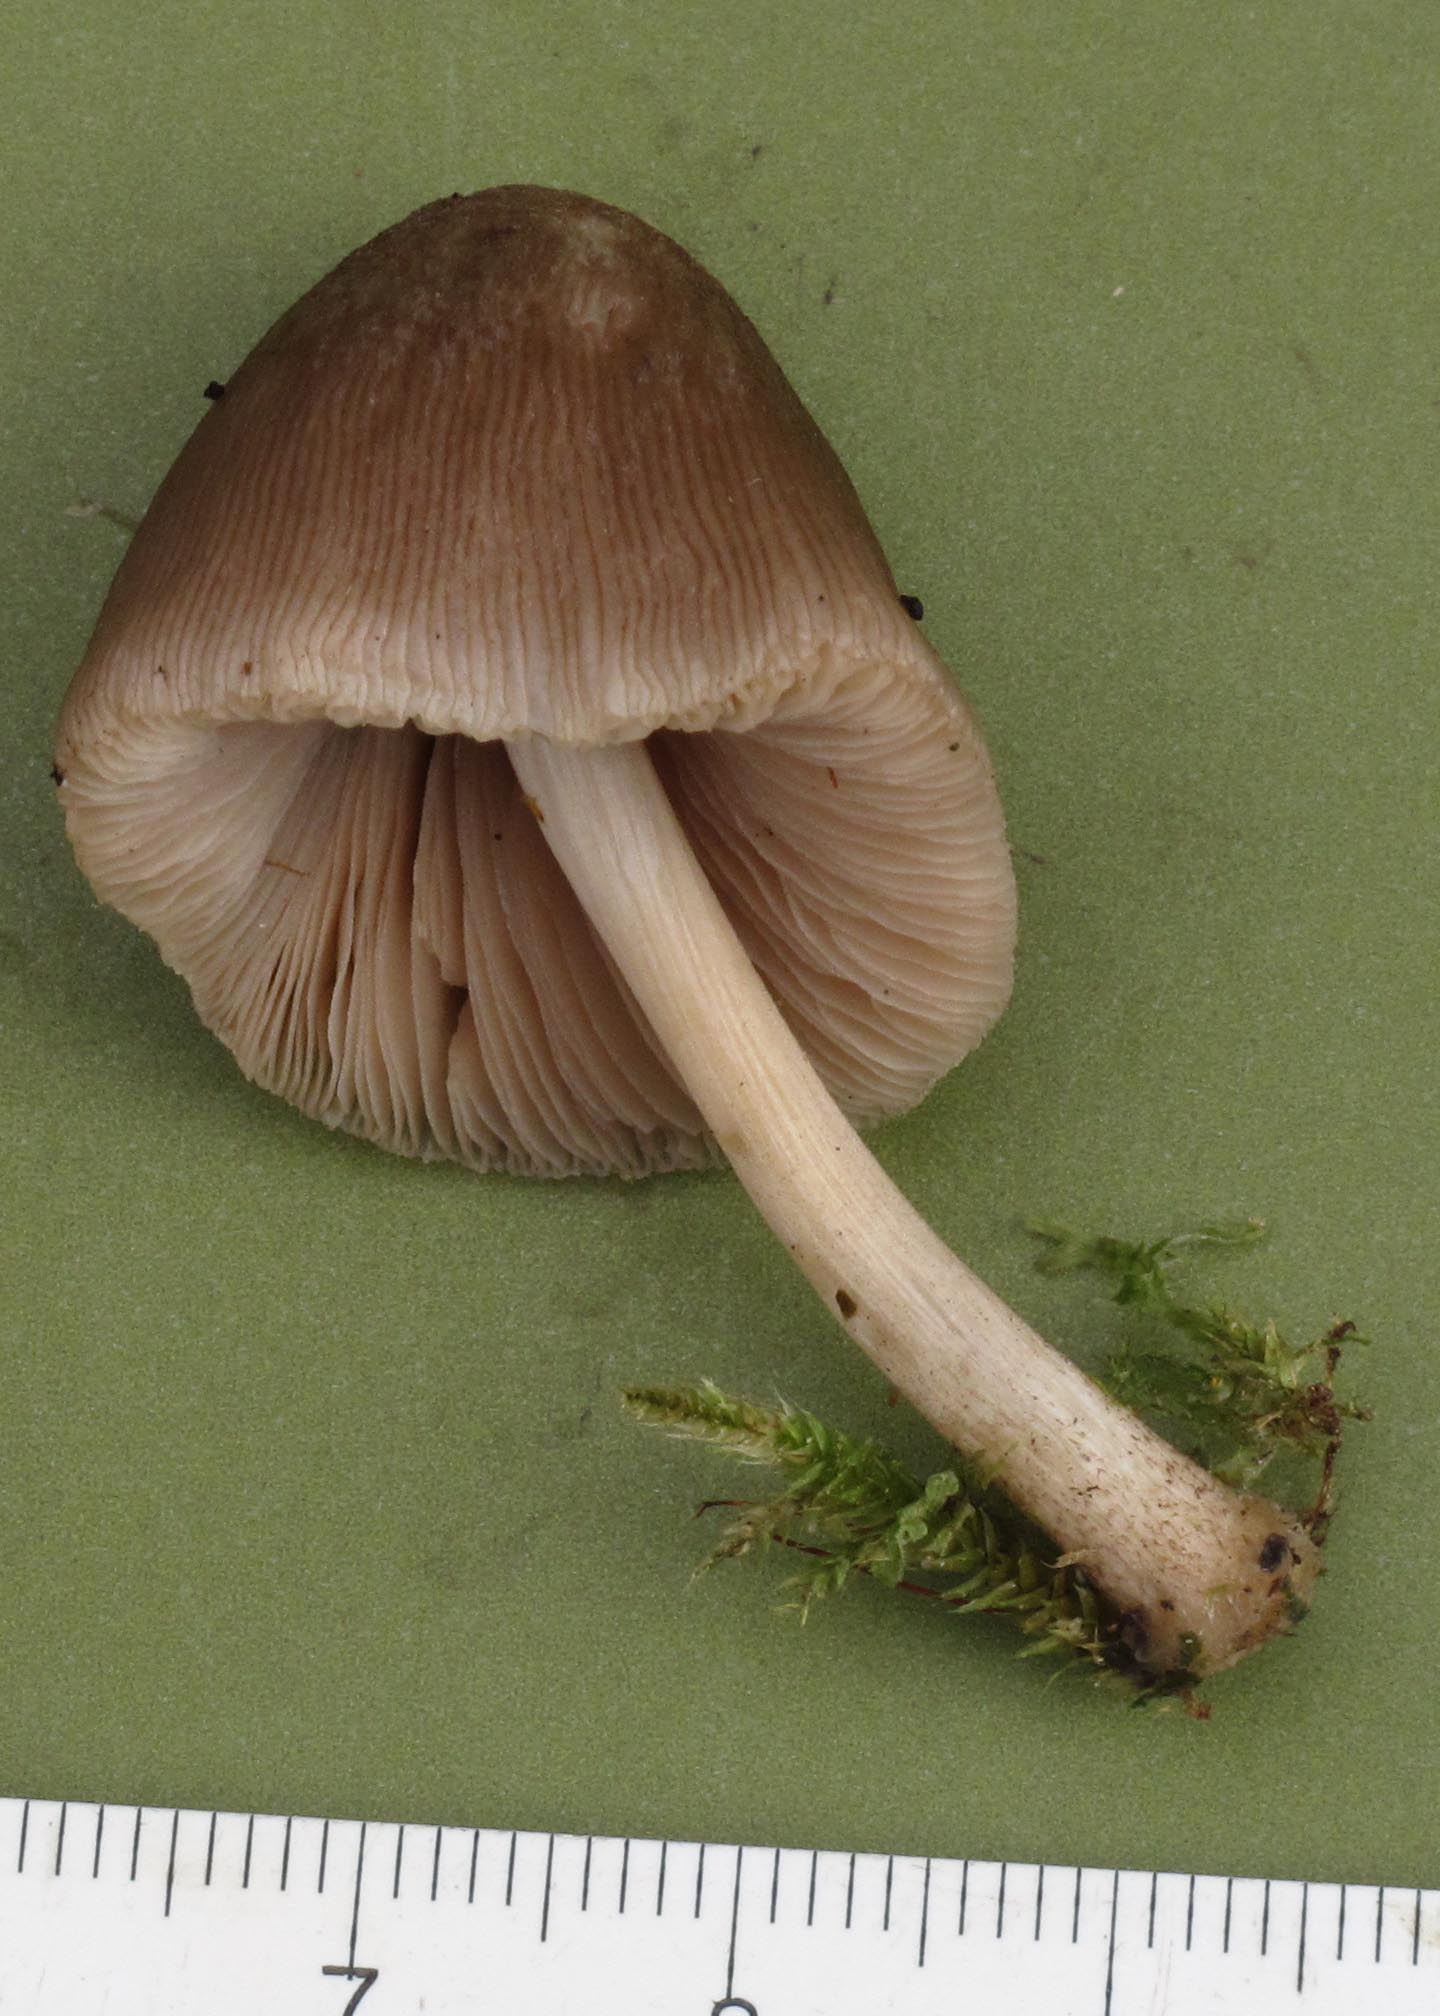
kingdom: Fungi
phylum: Basidiomycota
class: Agaricomycetes
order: Agaricales
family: Pluteaceae
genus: Pluteus
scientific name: Pluteus longistriatus
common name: hjul-skærmhat
